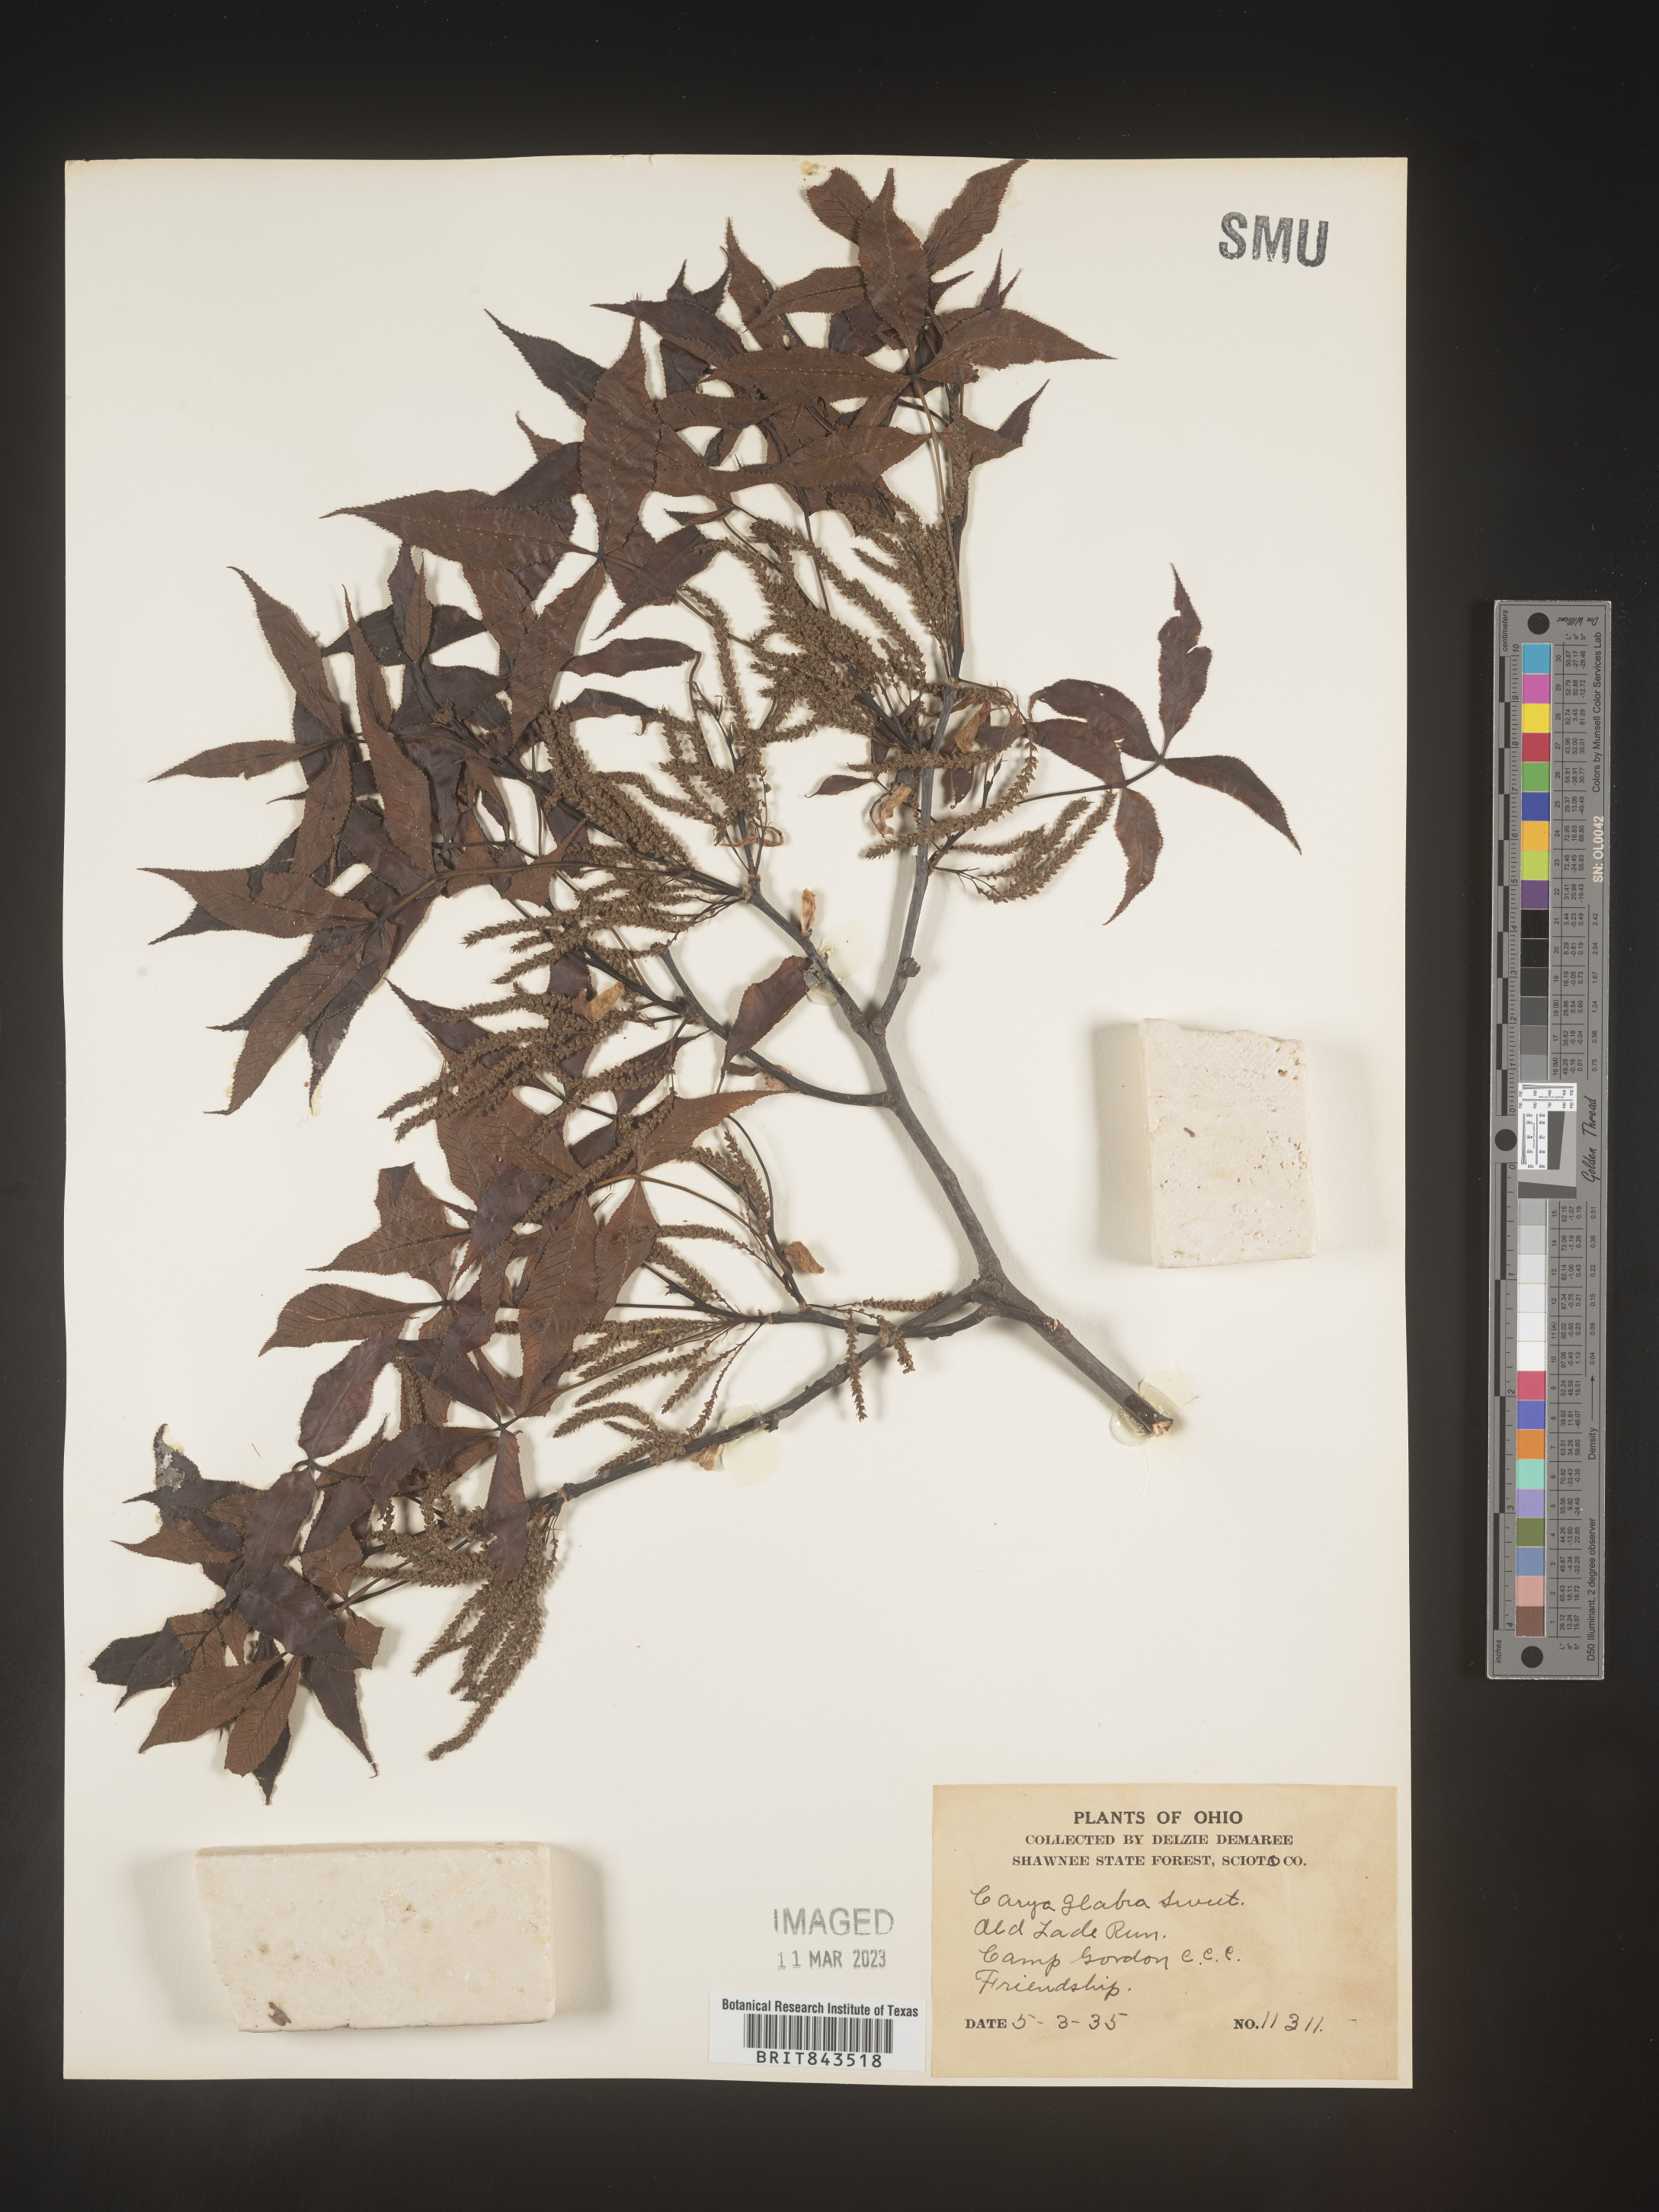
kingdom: Plantae
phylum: Tracheophyta
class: Magnoliopsida
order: Fagales
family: Juglandaceae
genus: Carya
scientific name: Carya glabra
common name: Pignut hickory
